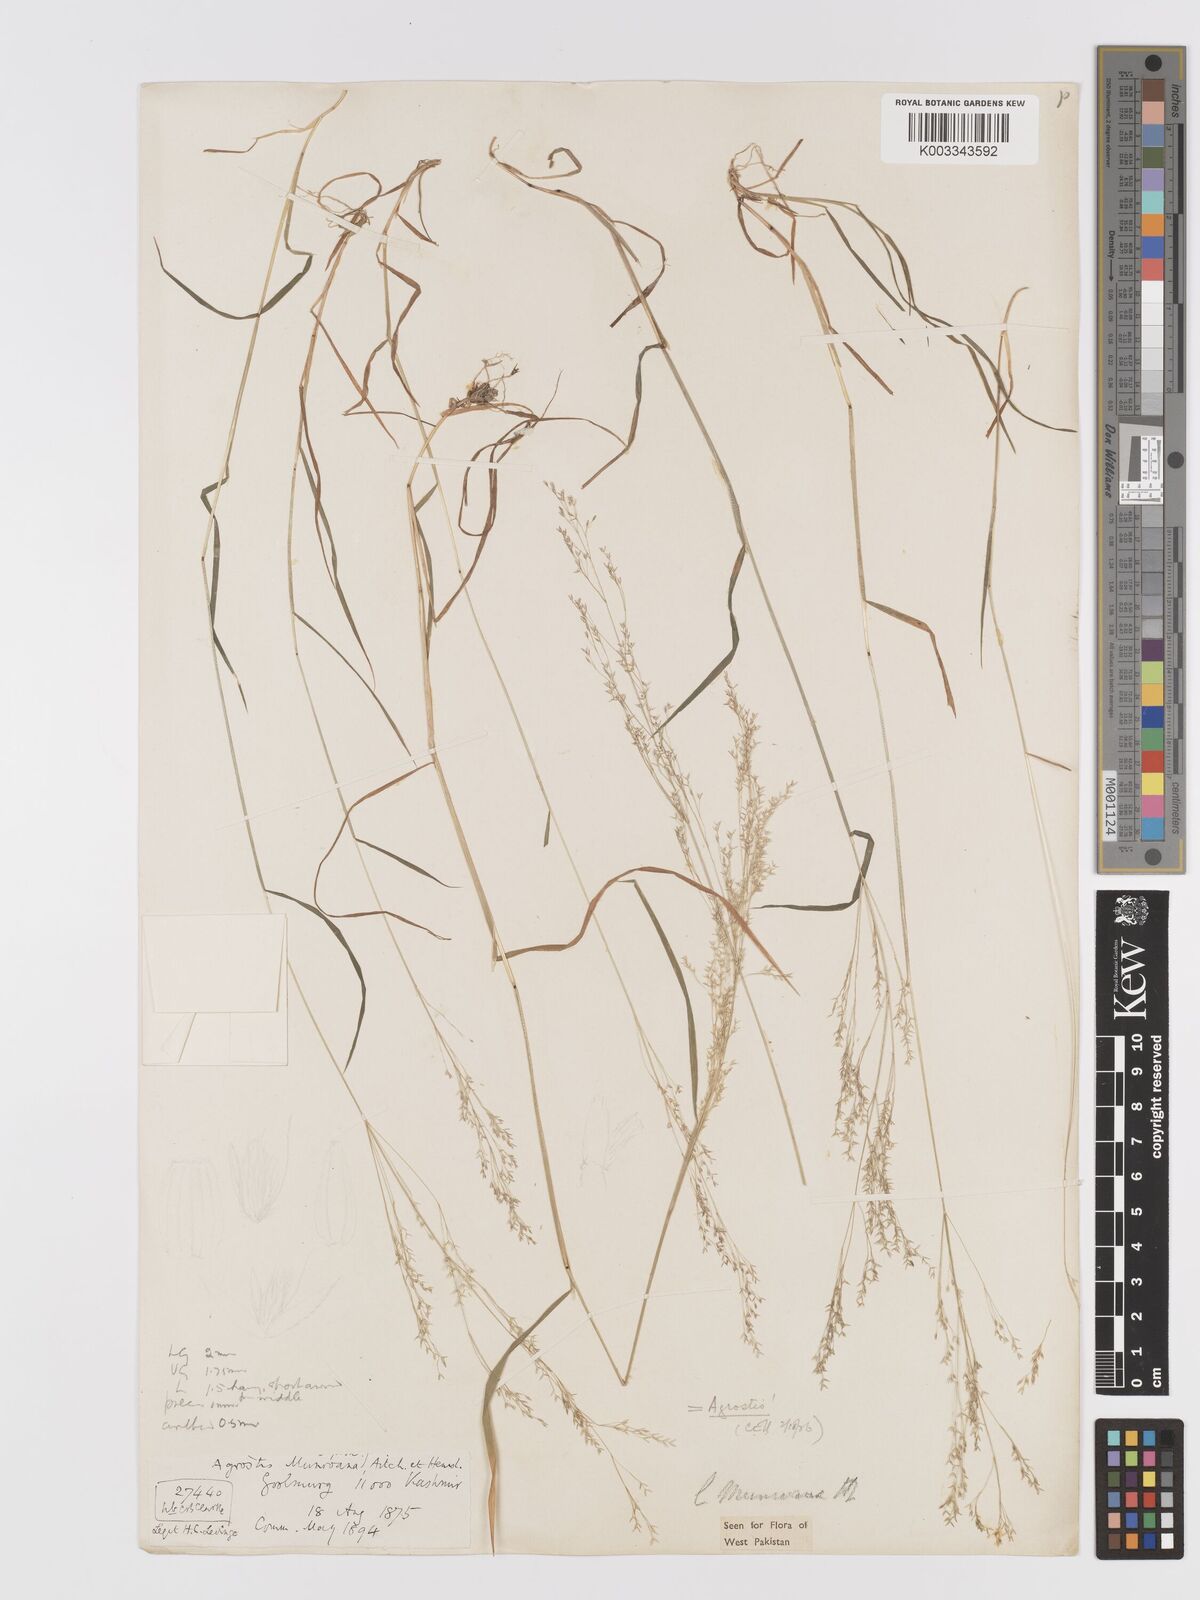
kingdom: Plantae
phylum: Tracheophyta
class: Liliopsida
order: Poales
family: Poaceae
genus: Agrostis
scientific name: Agrostis munroana
